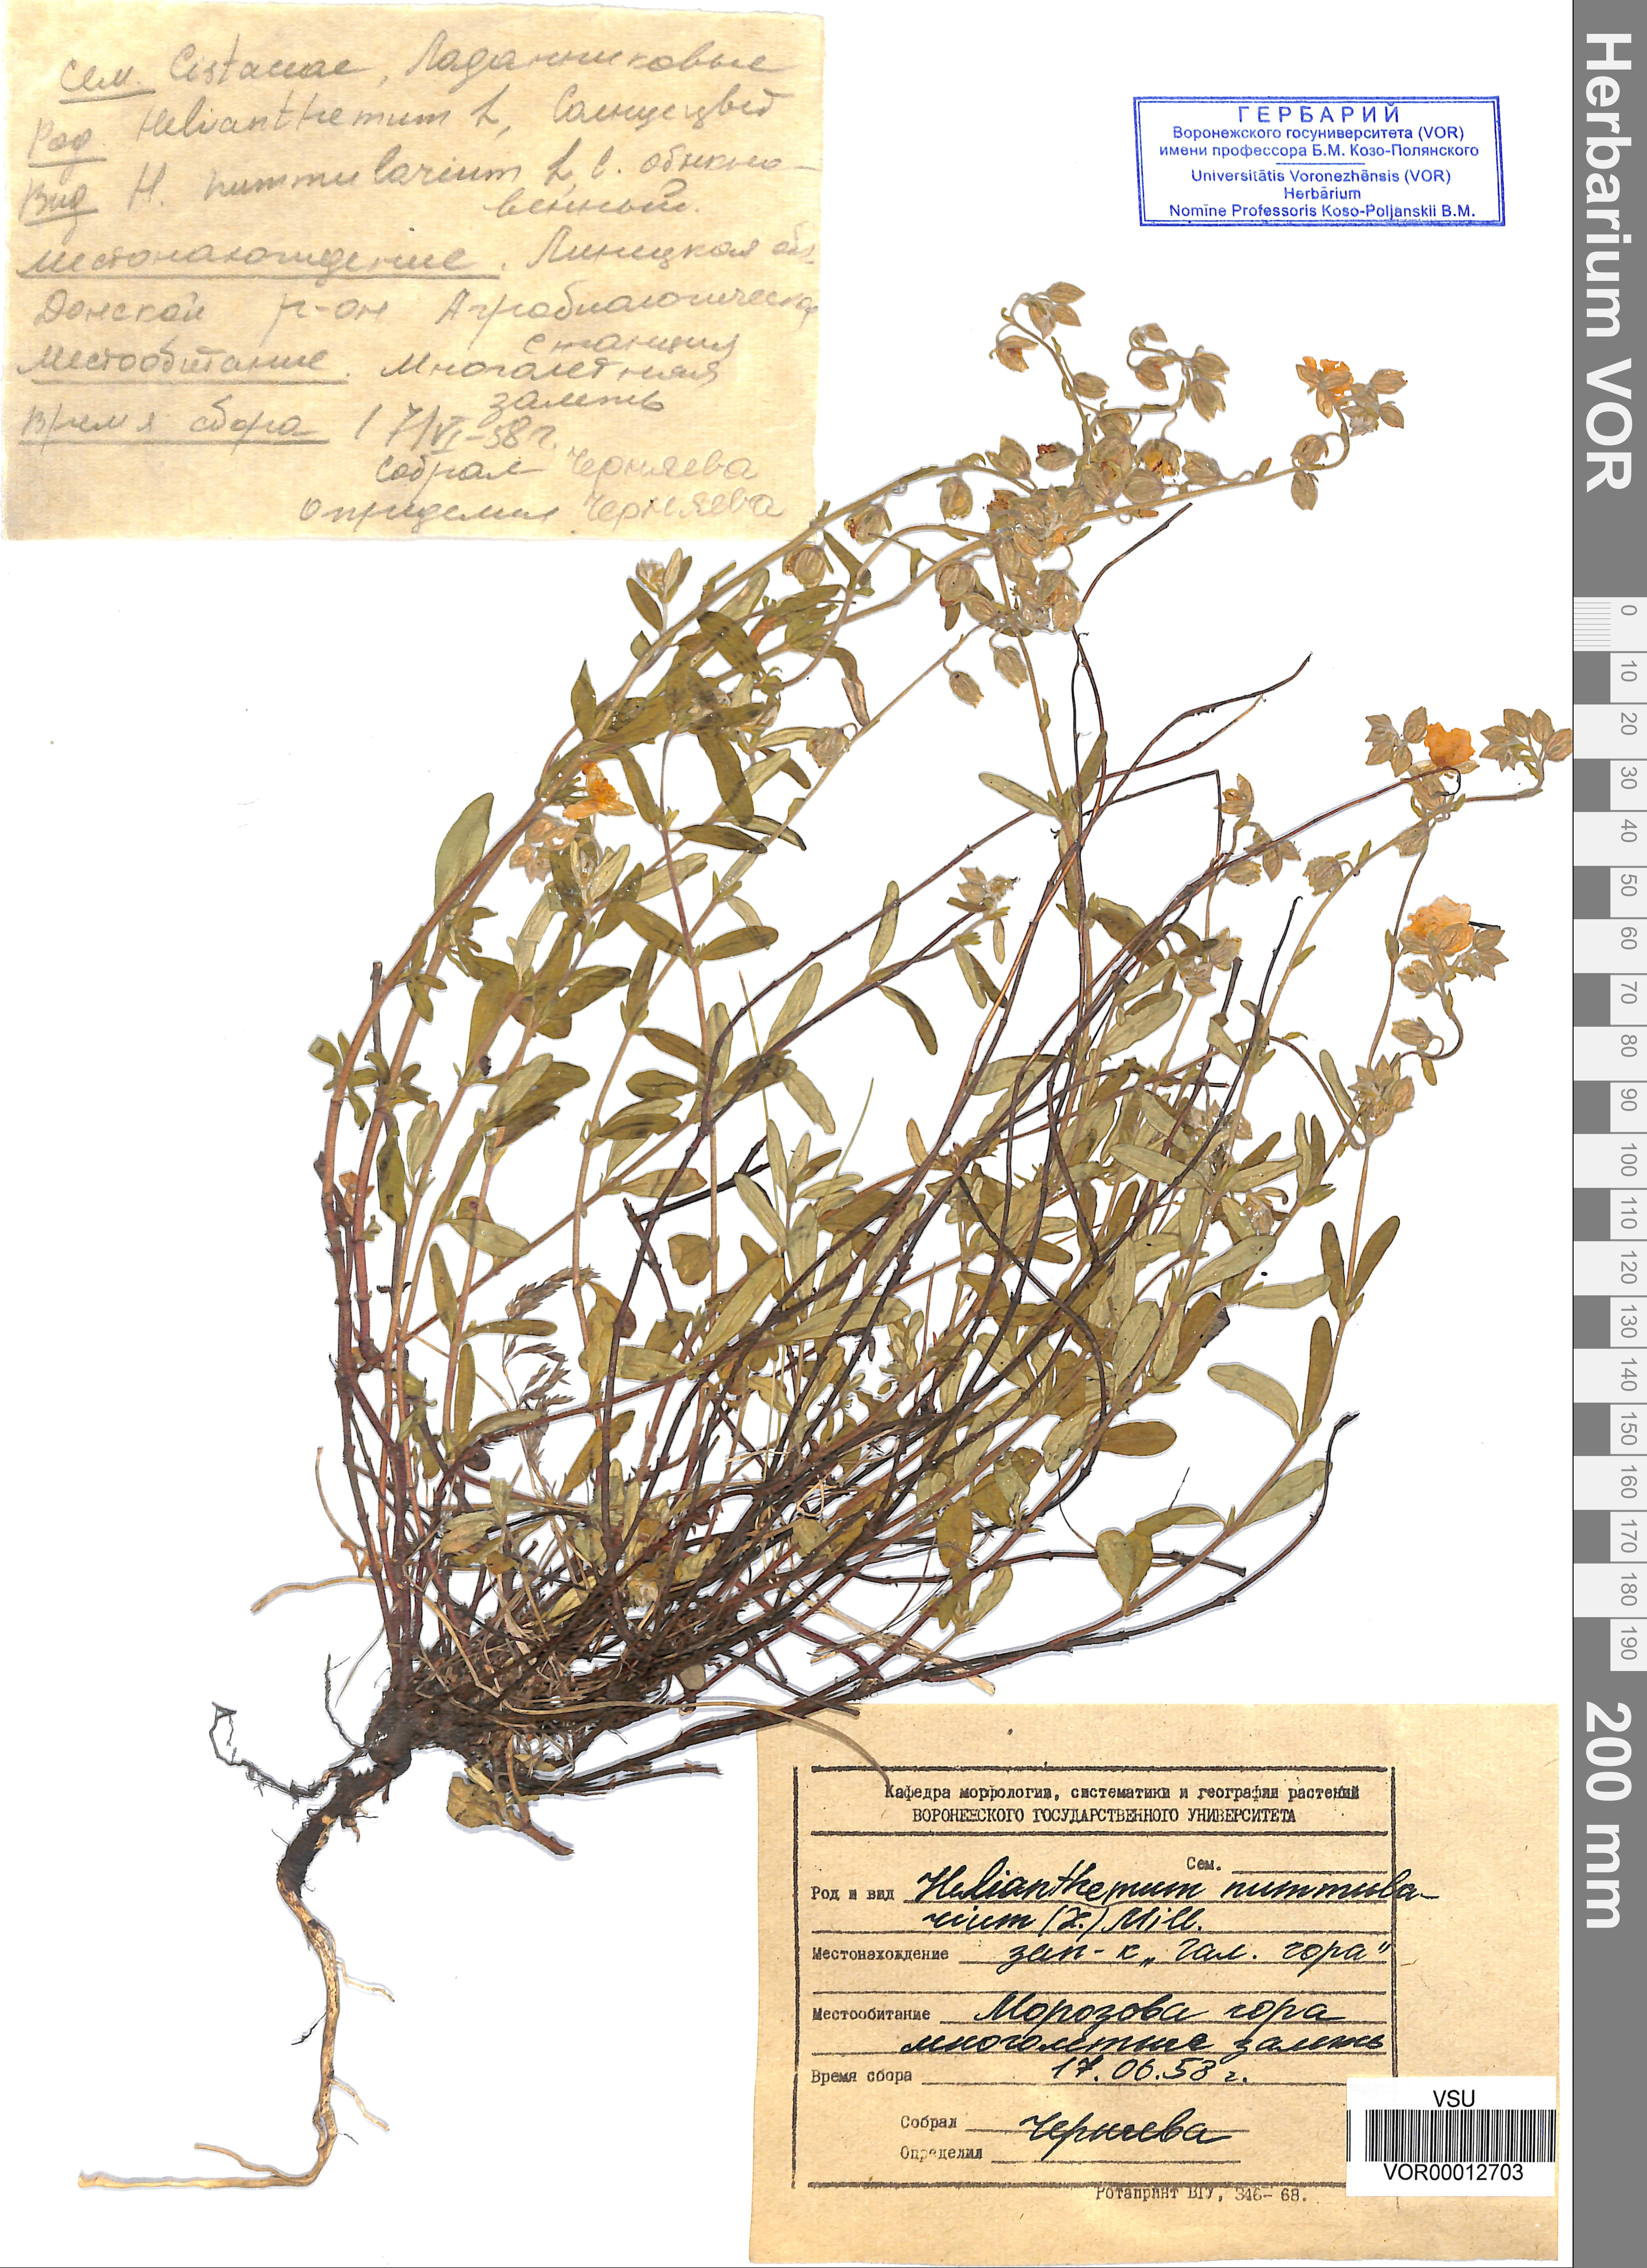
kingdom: Plantae
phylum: Tracheophyta
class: Magnoliopsida
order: Malvales
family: Cistaceae
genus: Helianthemum
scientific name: Helianthemum nummularium
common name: Common rock-rose
